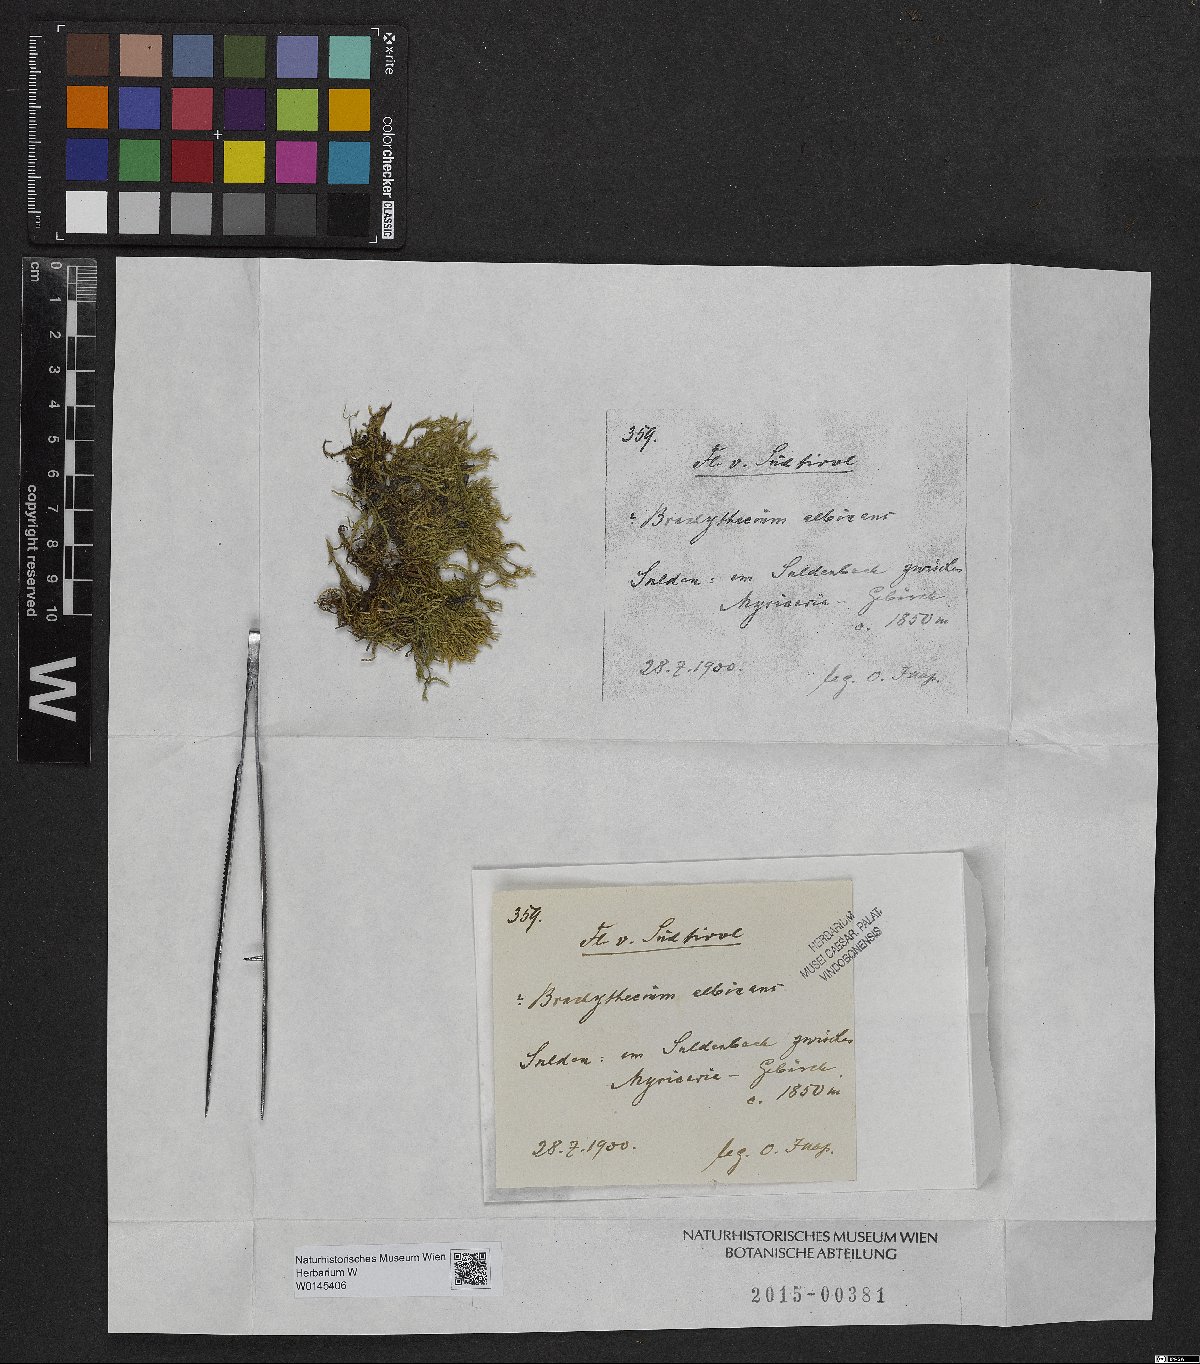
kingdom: Plantae
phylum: Bryophyta
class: Bryopsida
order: Hypnales
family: Brachytheciaceae
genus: Brachythecium
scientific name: Brachythecium albicans
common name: Whitish ragged moss
